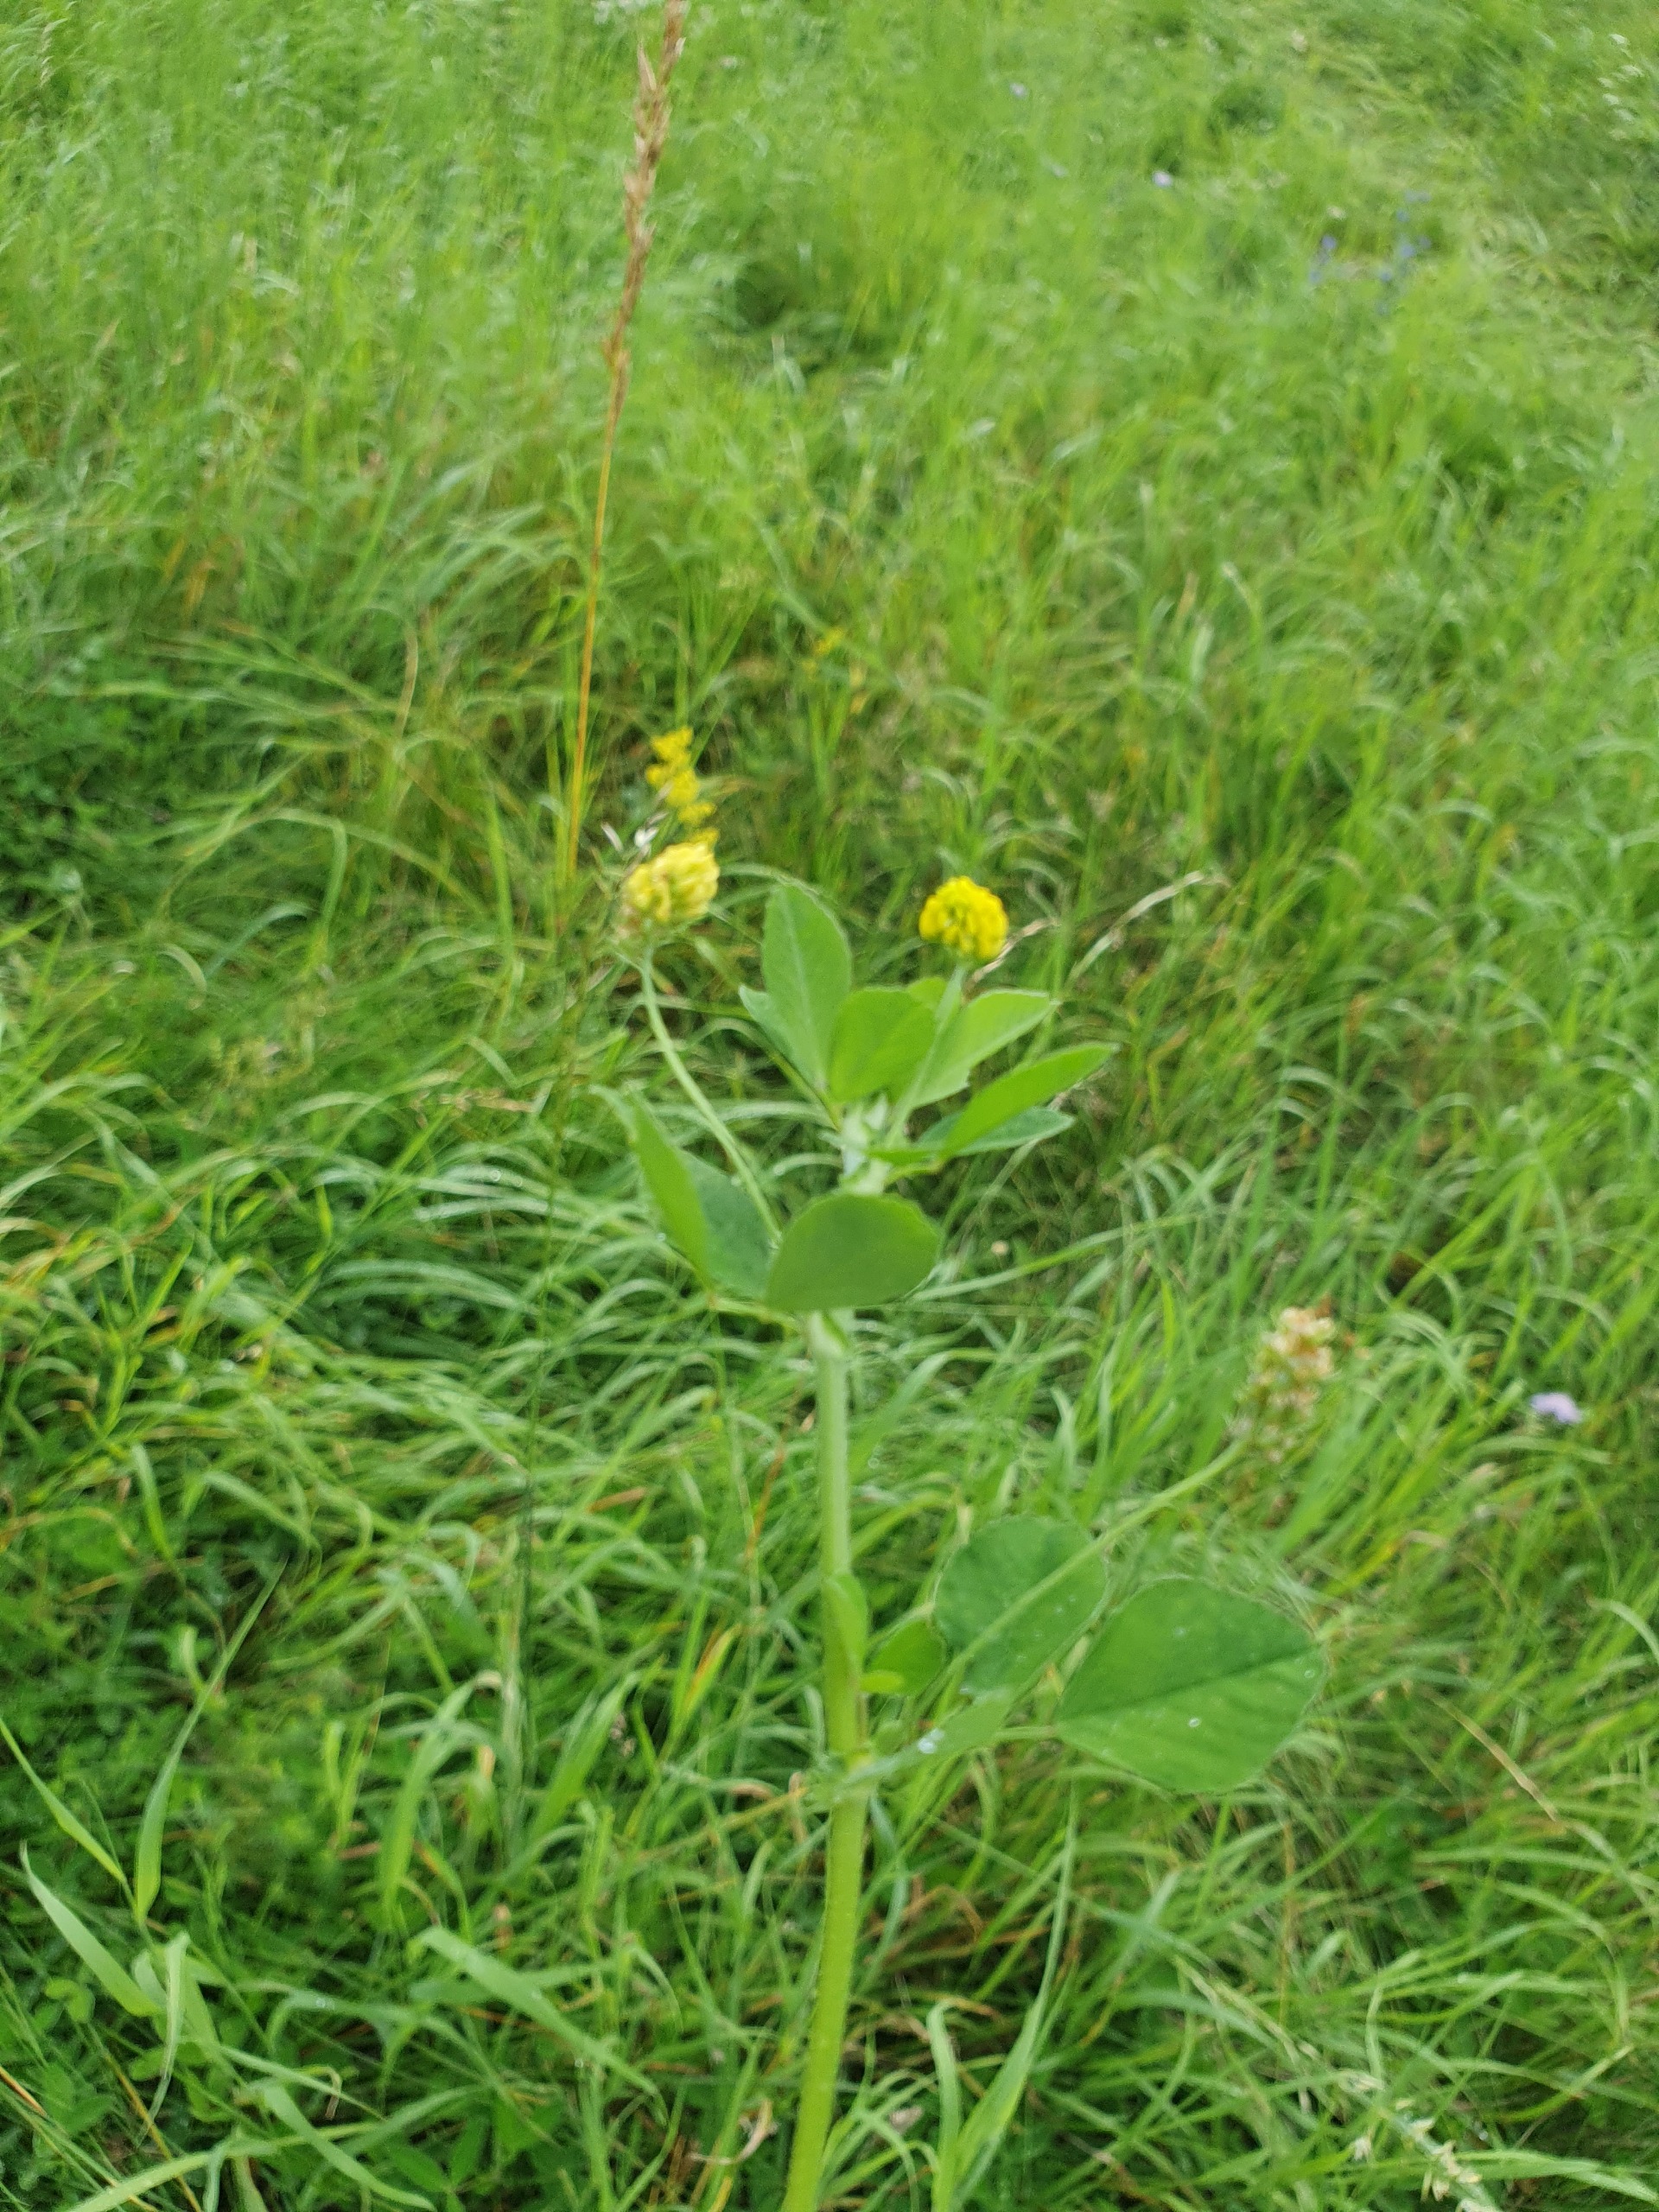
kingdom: Plantae
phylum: Tracheophyta
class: Magnoliopsida
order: Fabales
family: Fabaceae
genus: Medicago
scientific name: Medicago lupulina
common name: Humle-sneglebælg
